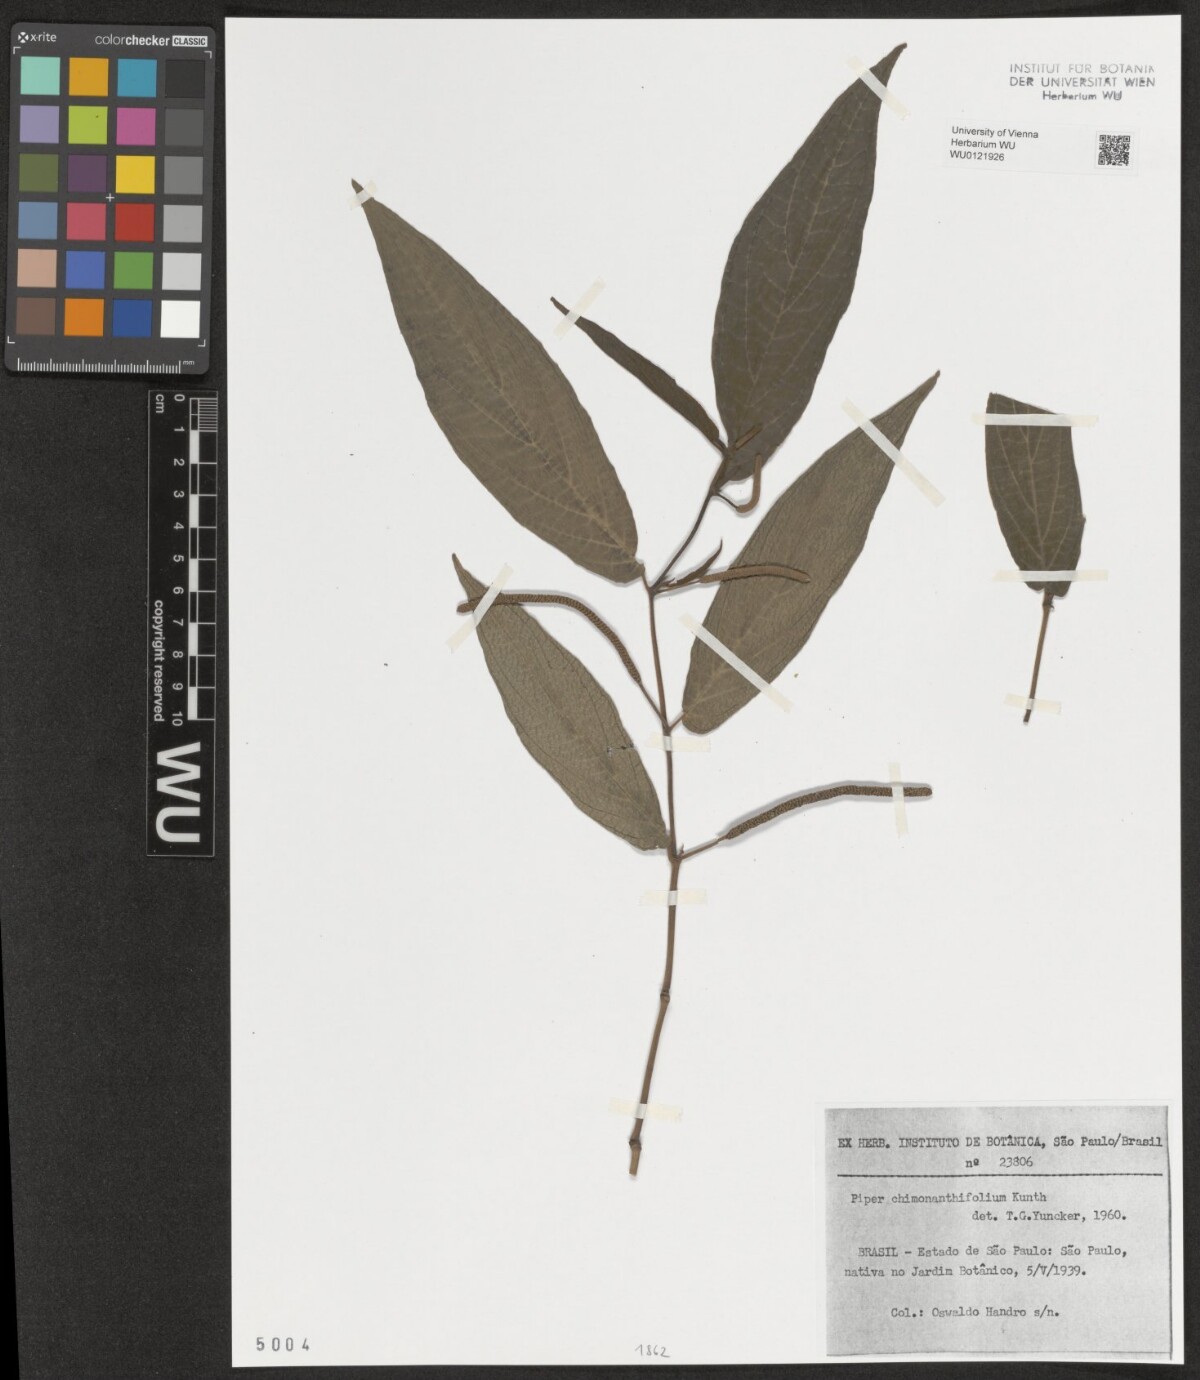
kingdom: Plantae
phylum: Tracheophyta
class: Magnoliopsida
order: Piperales
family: Piperaceae
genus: Piper
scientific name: Piper chimonanthifolium
